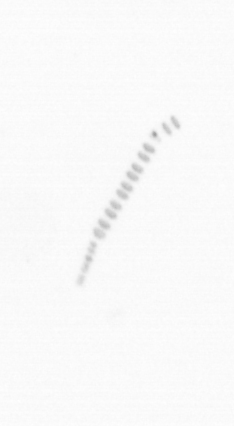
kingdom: Chromista
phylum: Ochrophyta
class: Bacillariophyceae
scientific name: Bacillariophyceae
